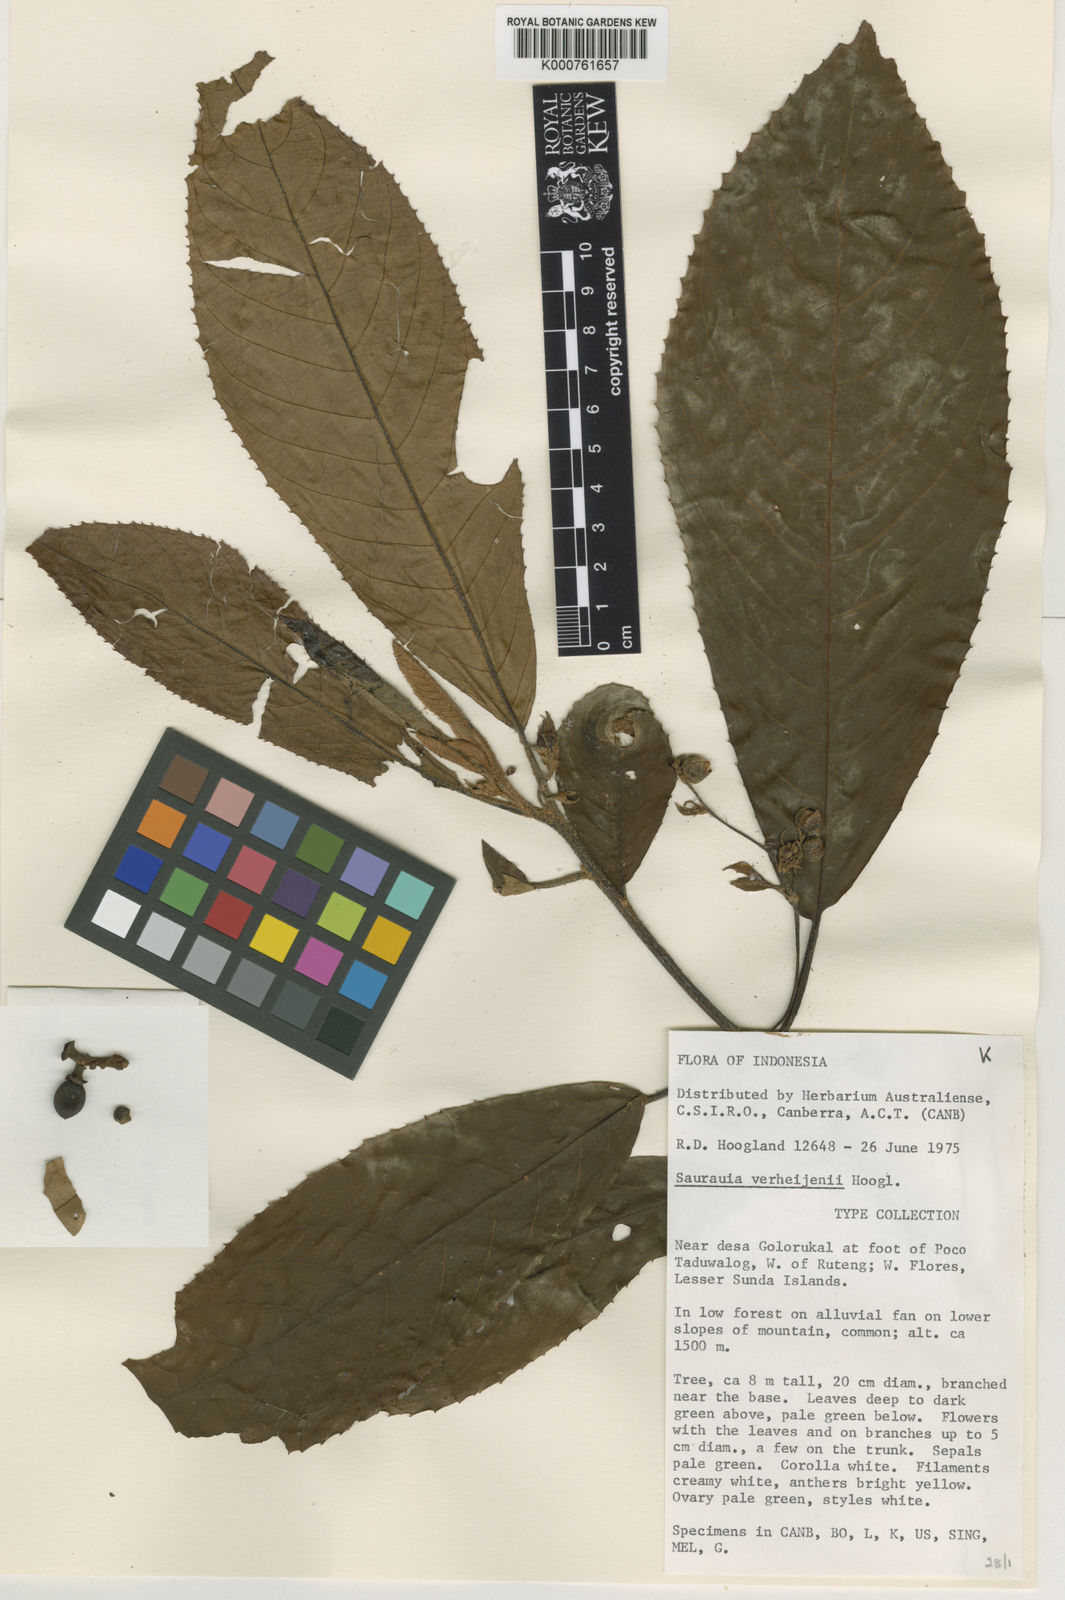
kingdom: Plantae
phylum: Tracheophyta
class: Magnoliopsida
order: Ericales
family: Actinidiaceae
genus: Saurauia
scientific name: Saurauia verheijenii
